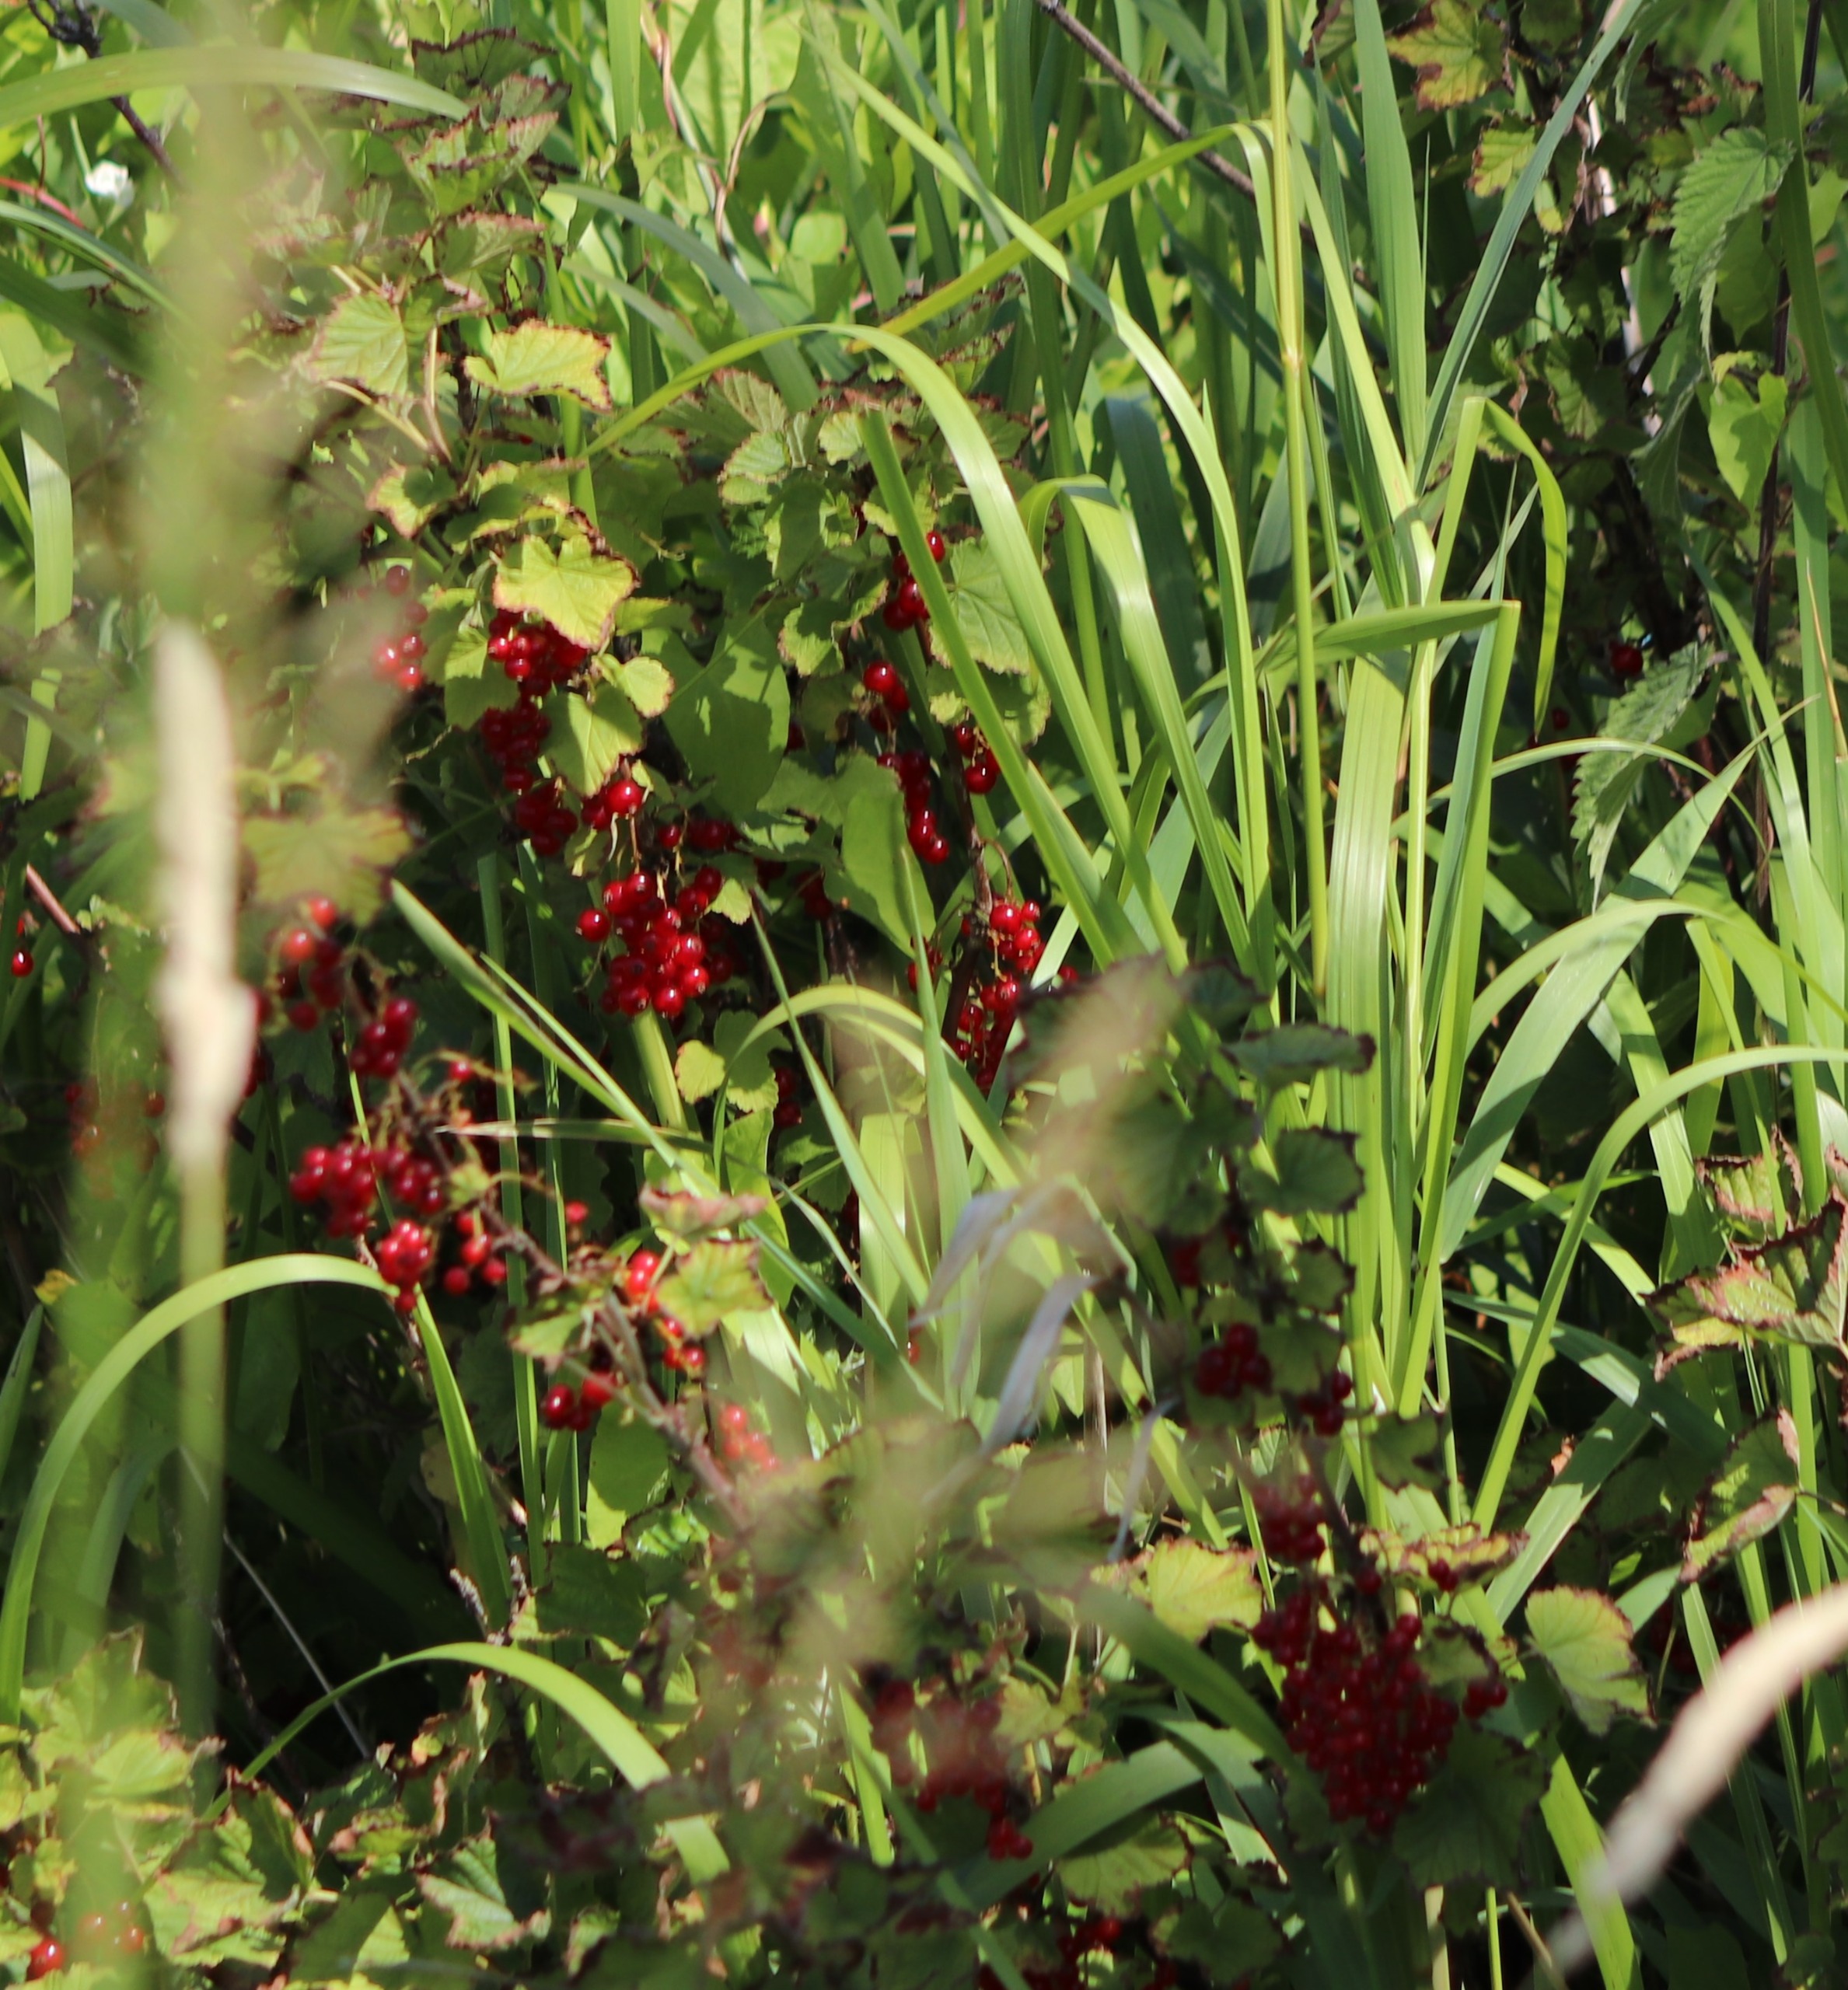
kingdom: Plantae
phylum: Tracheophyta
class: Magnoliopsida
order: Saxifragales
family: Grossulariaceae
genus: Ribes
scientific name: Ribes
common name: Ribsslægten
